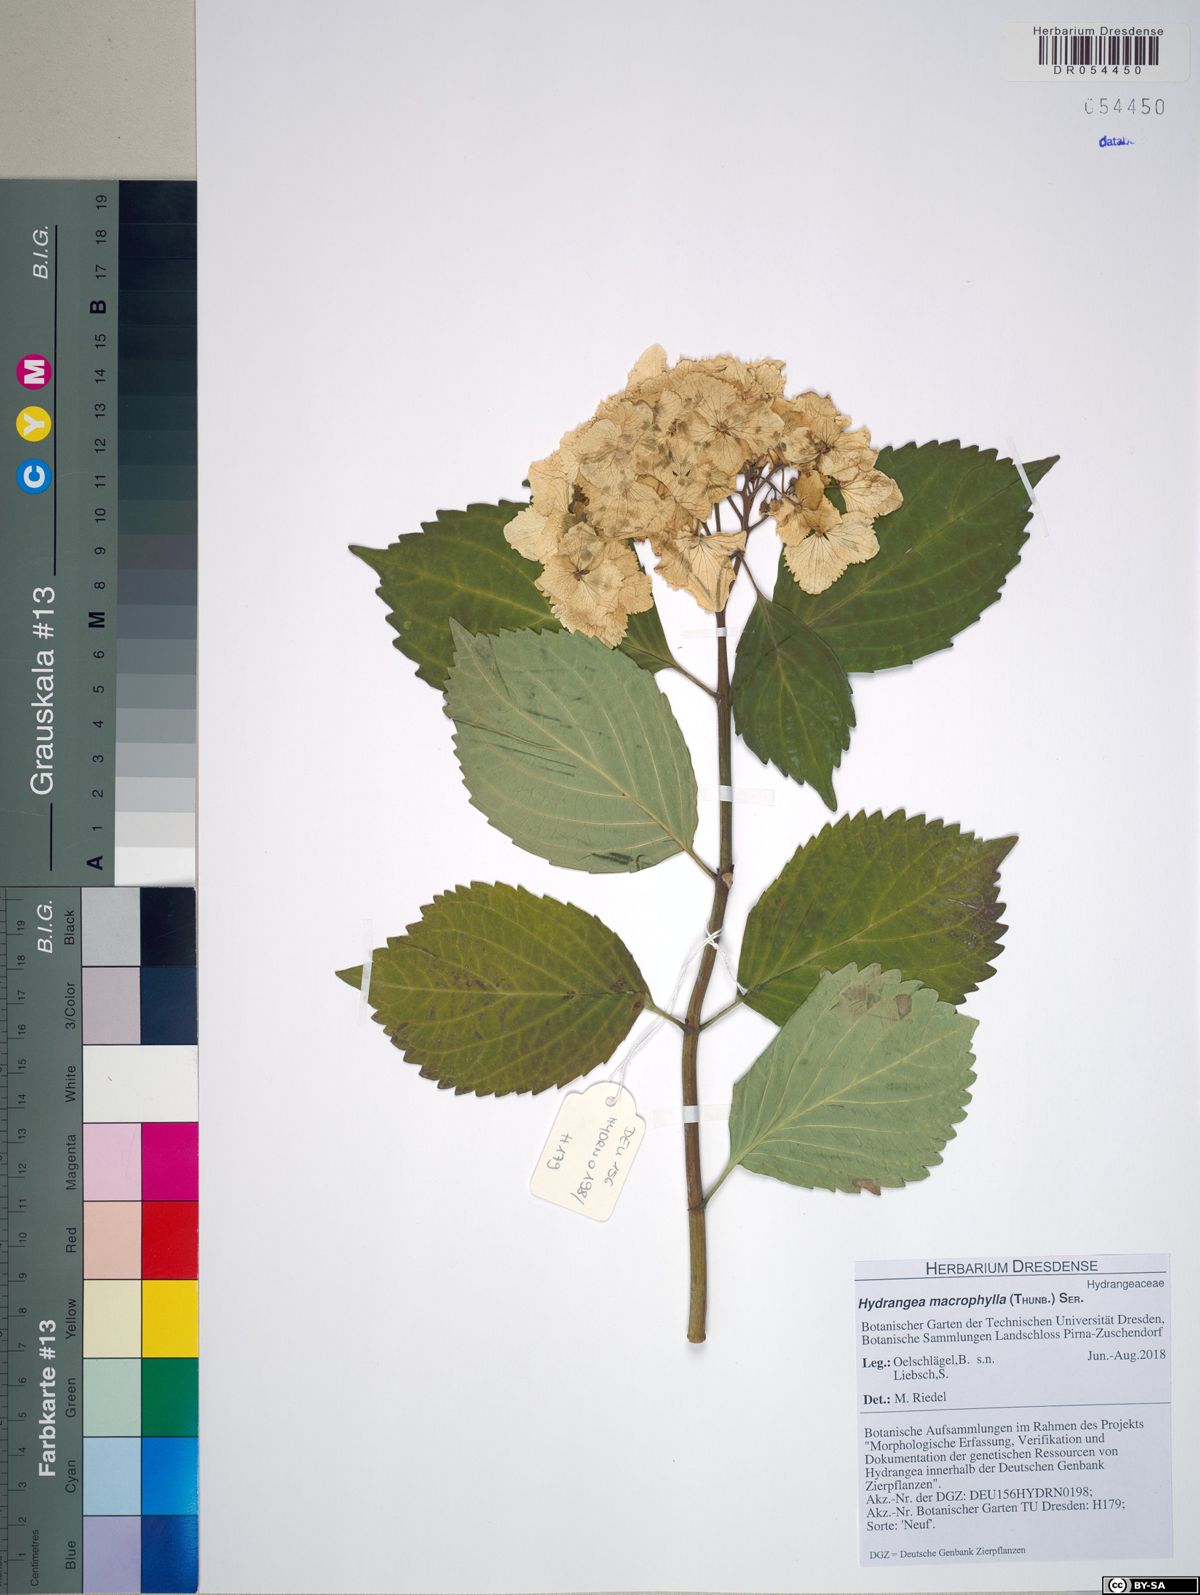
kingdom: Plantae
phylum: Tracheophyta
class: Magnoliopsida
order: Cornales
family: Hydrangeaceae
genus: Hydrangea
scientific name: Hydrangea macrophylla
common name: Hydrangea
